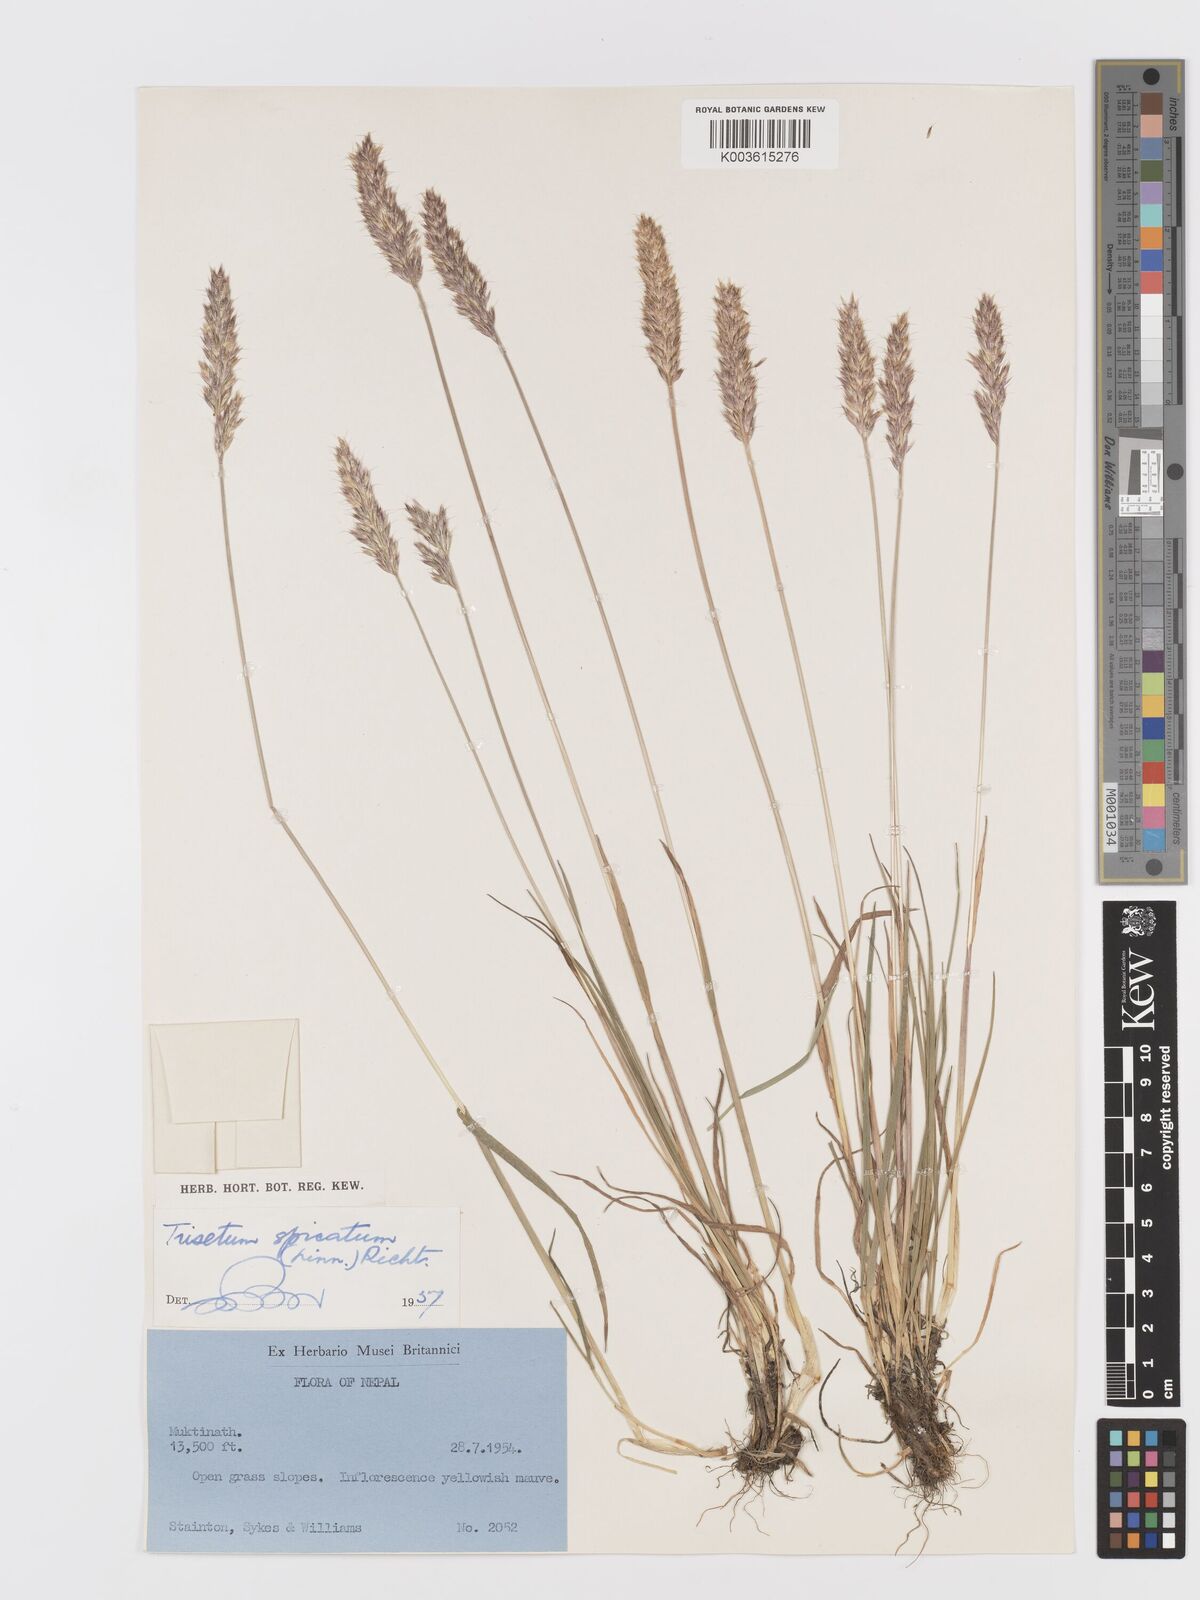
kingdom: Plantae
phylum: Tracheophyta
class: Liliopsida
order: Poales
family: Poaceae
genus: Koeleria
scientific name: Koeleria spicata
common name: Mountain trisetum
